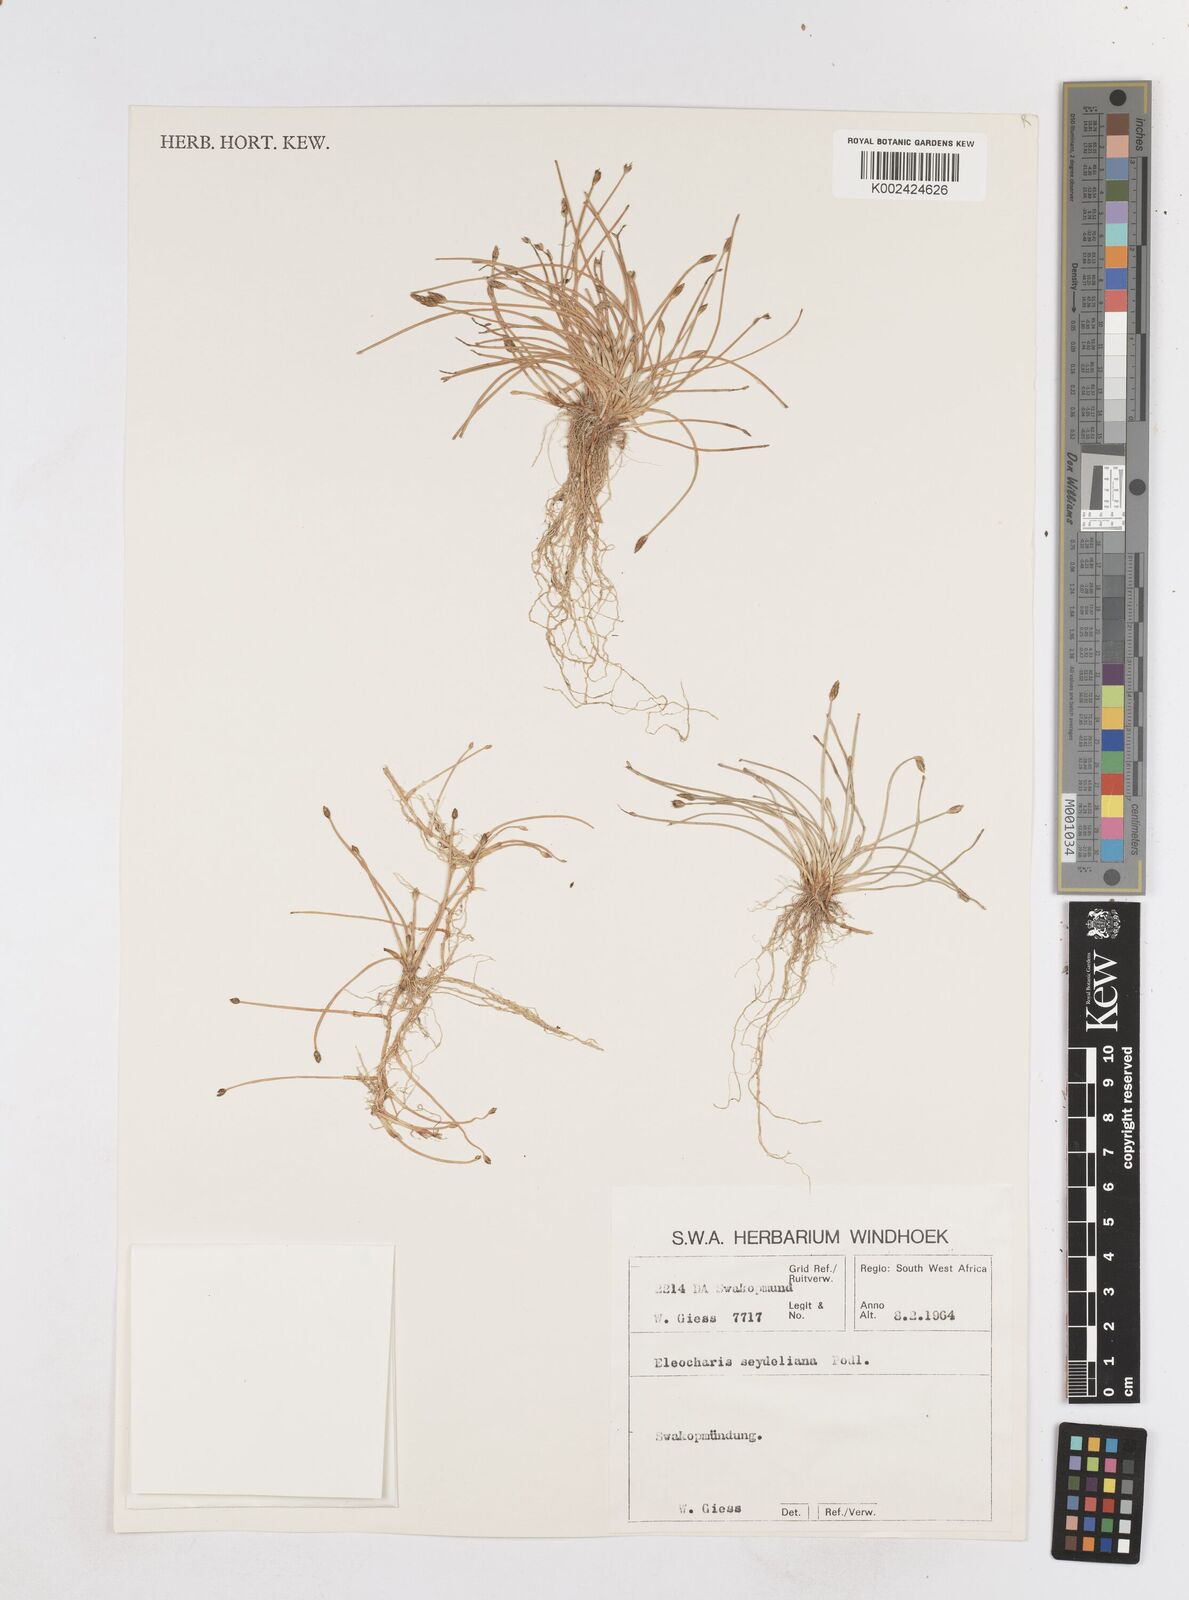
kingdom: Plantae
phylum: Tracheophyta
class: Liliopsida
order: Poales
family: Cyperaceae
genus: Eleocharis
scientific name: Eleocharis schlechteri
